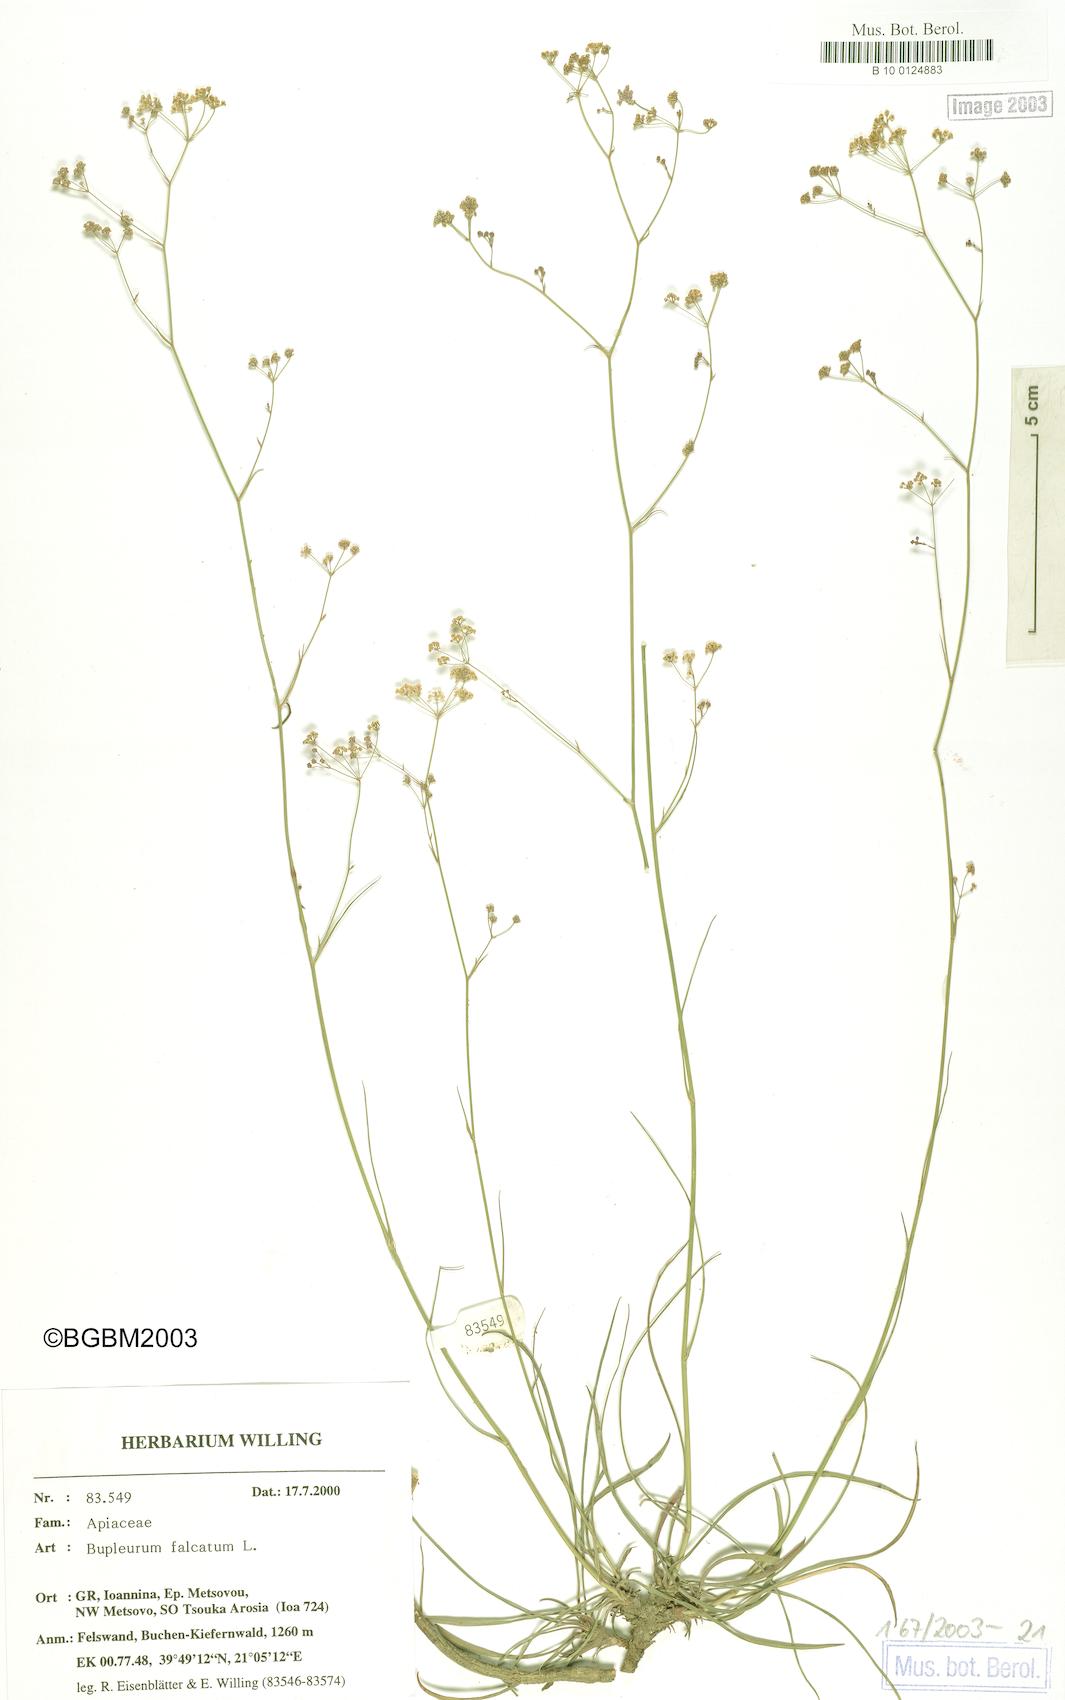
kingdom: Plantae
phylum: Tracheophyta
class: Magnoliopsida
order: Apiales
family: Apiaceae
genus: Bupleurum
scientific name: Bupleurum falcatum
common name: Sickle-leaved hare's-ear
